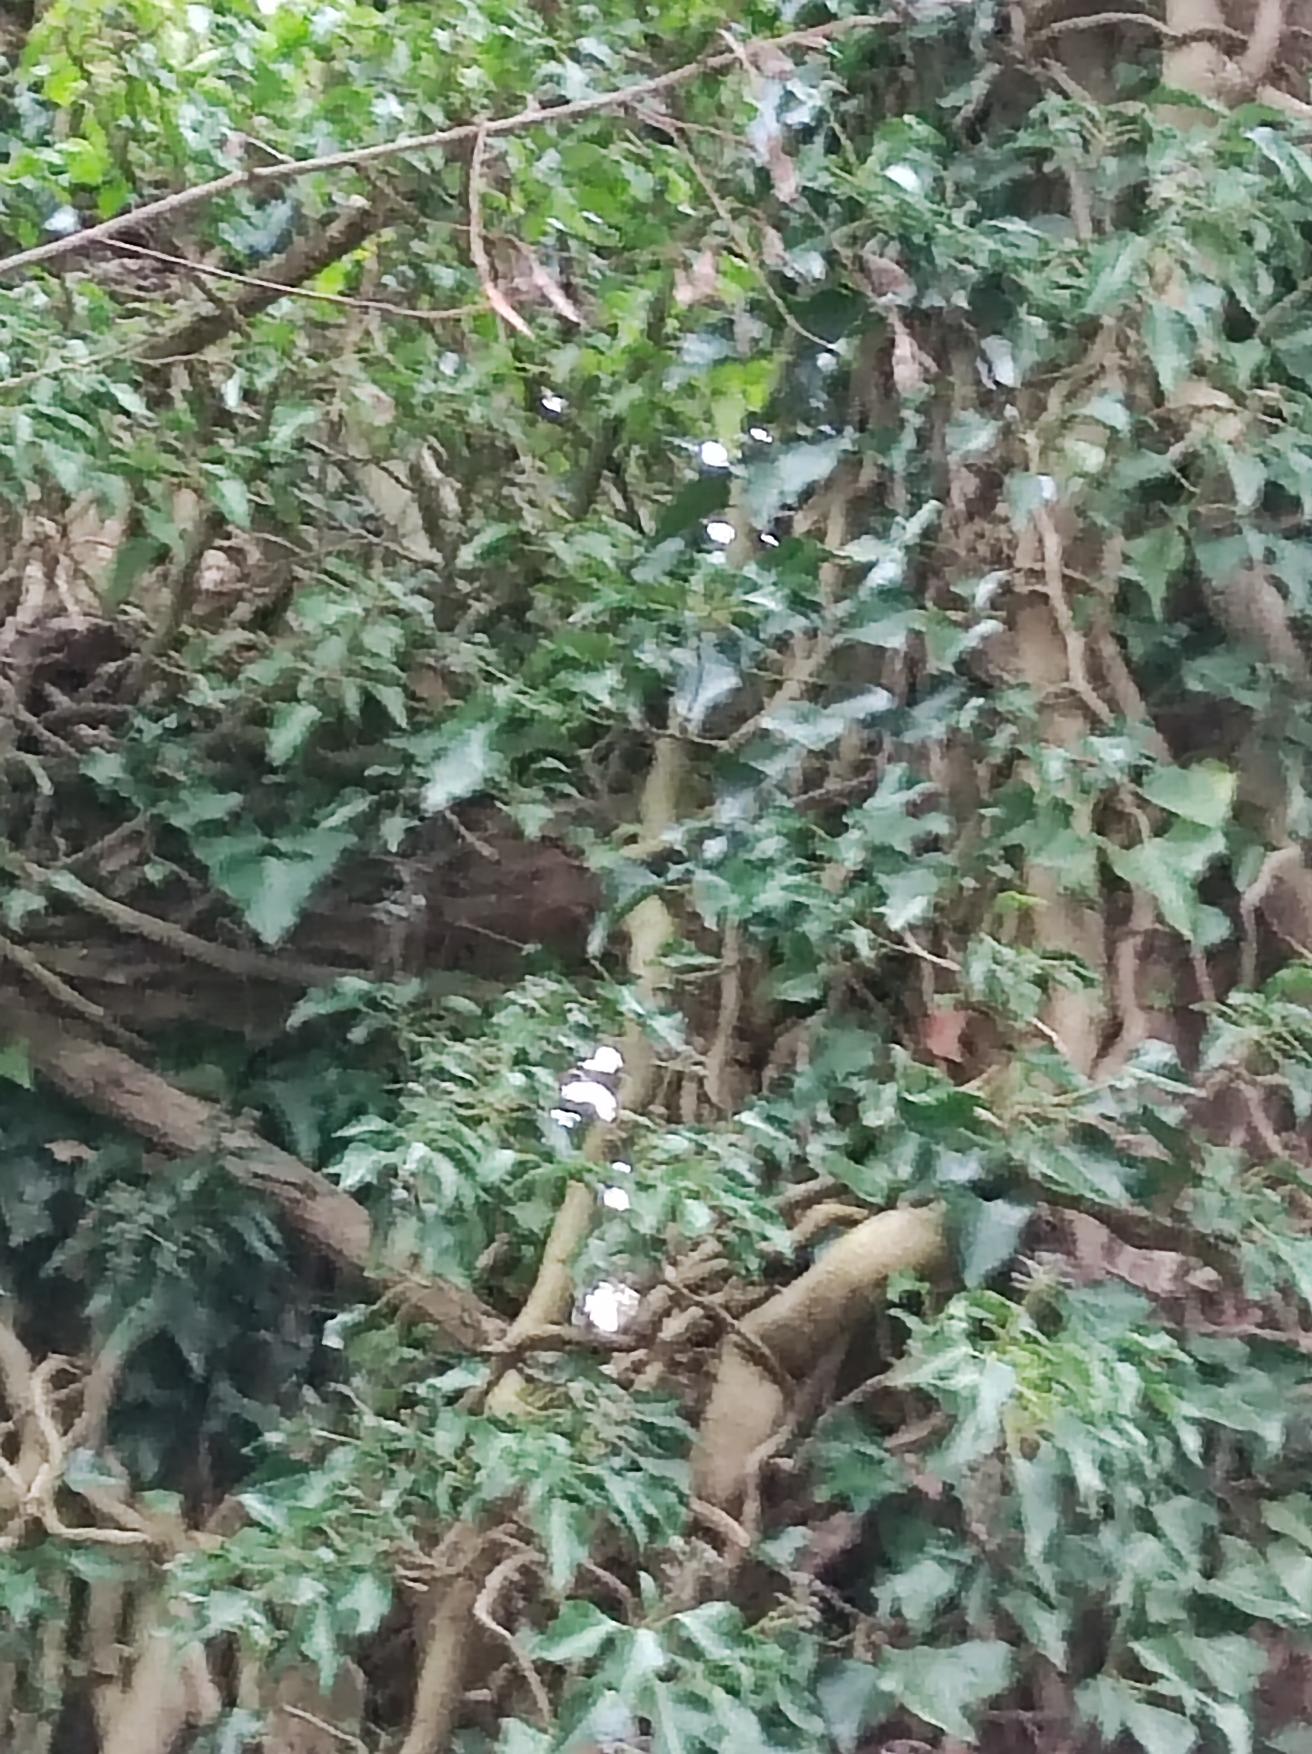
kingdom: Plantae
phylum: Tracheophyta
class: Magnoliopsida
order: Apiales
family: Araliaceae
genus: Hedera
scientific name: Hedera helix
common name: Vedbend
